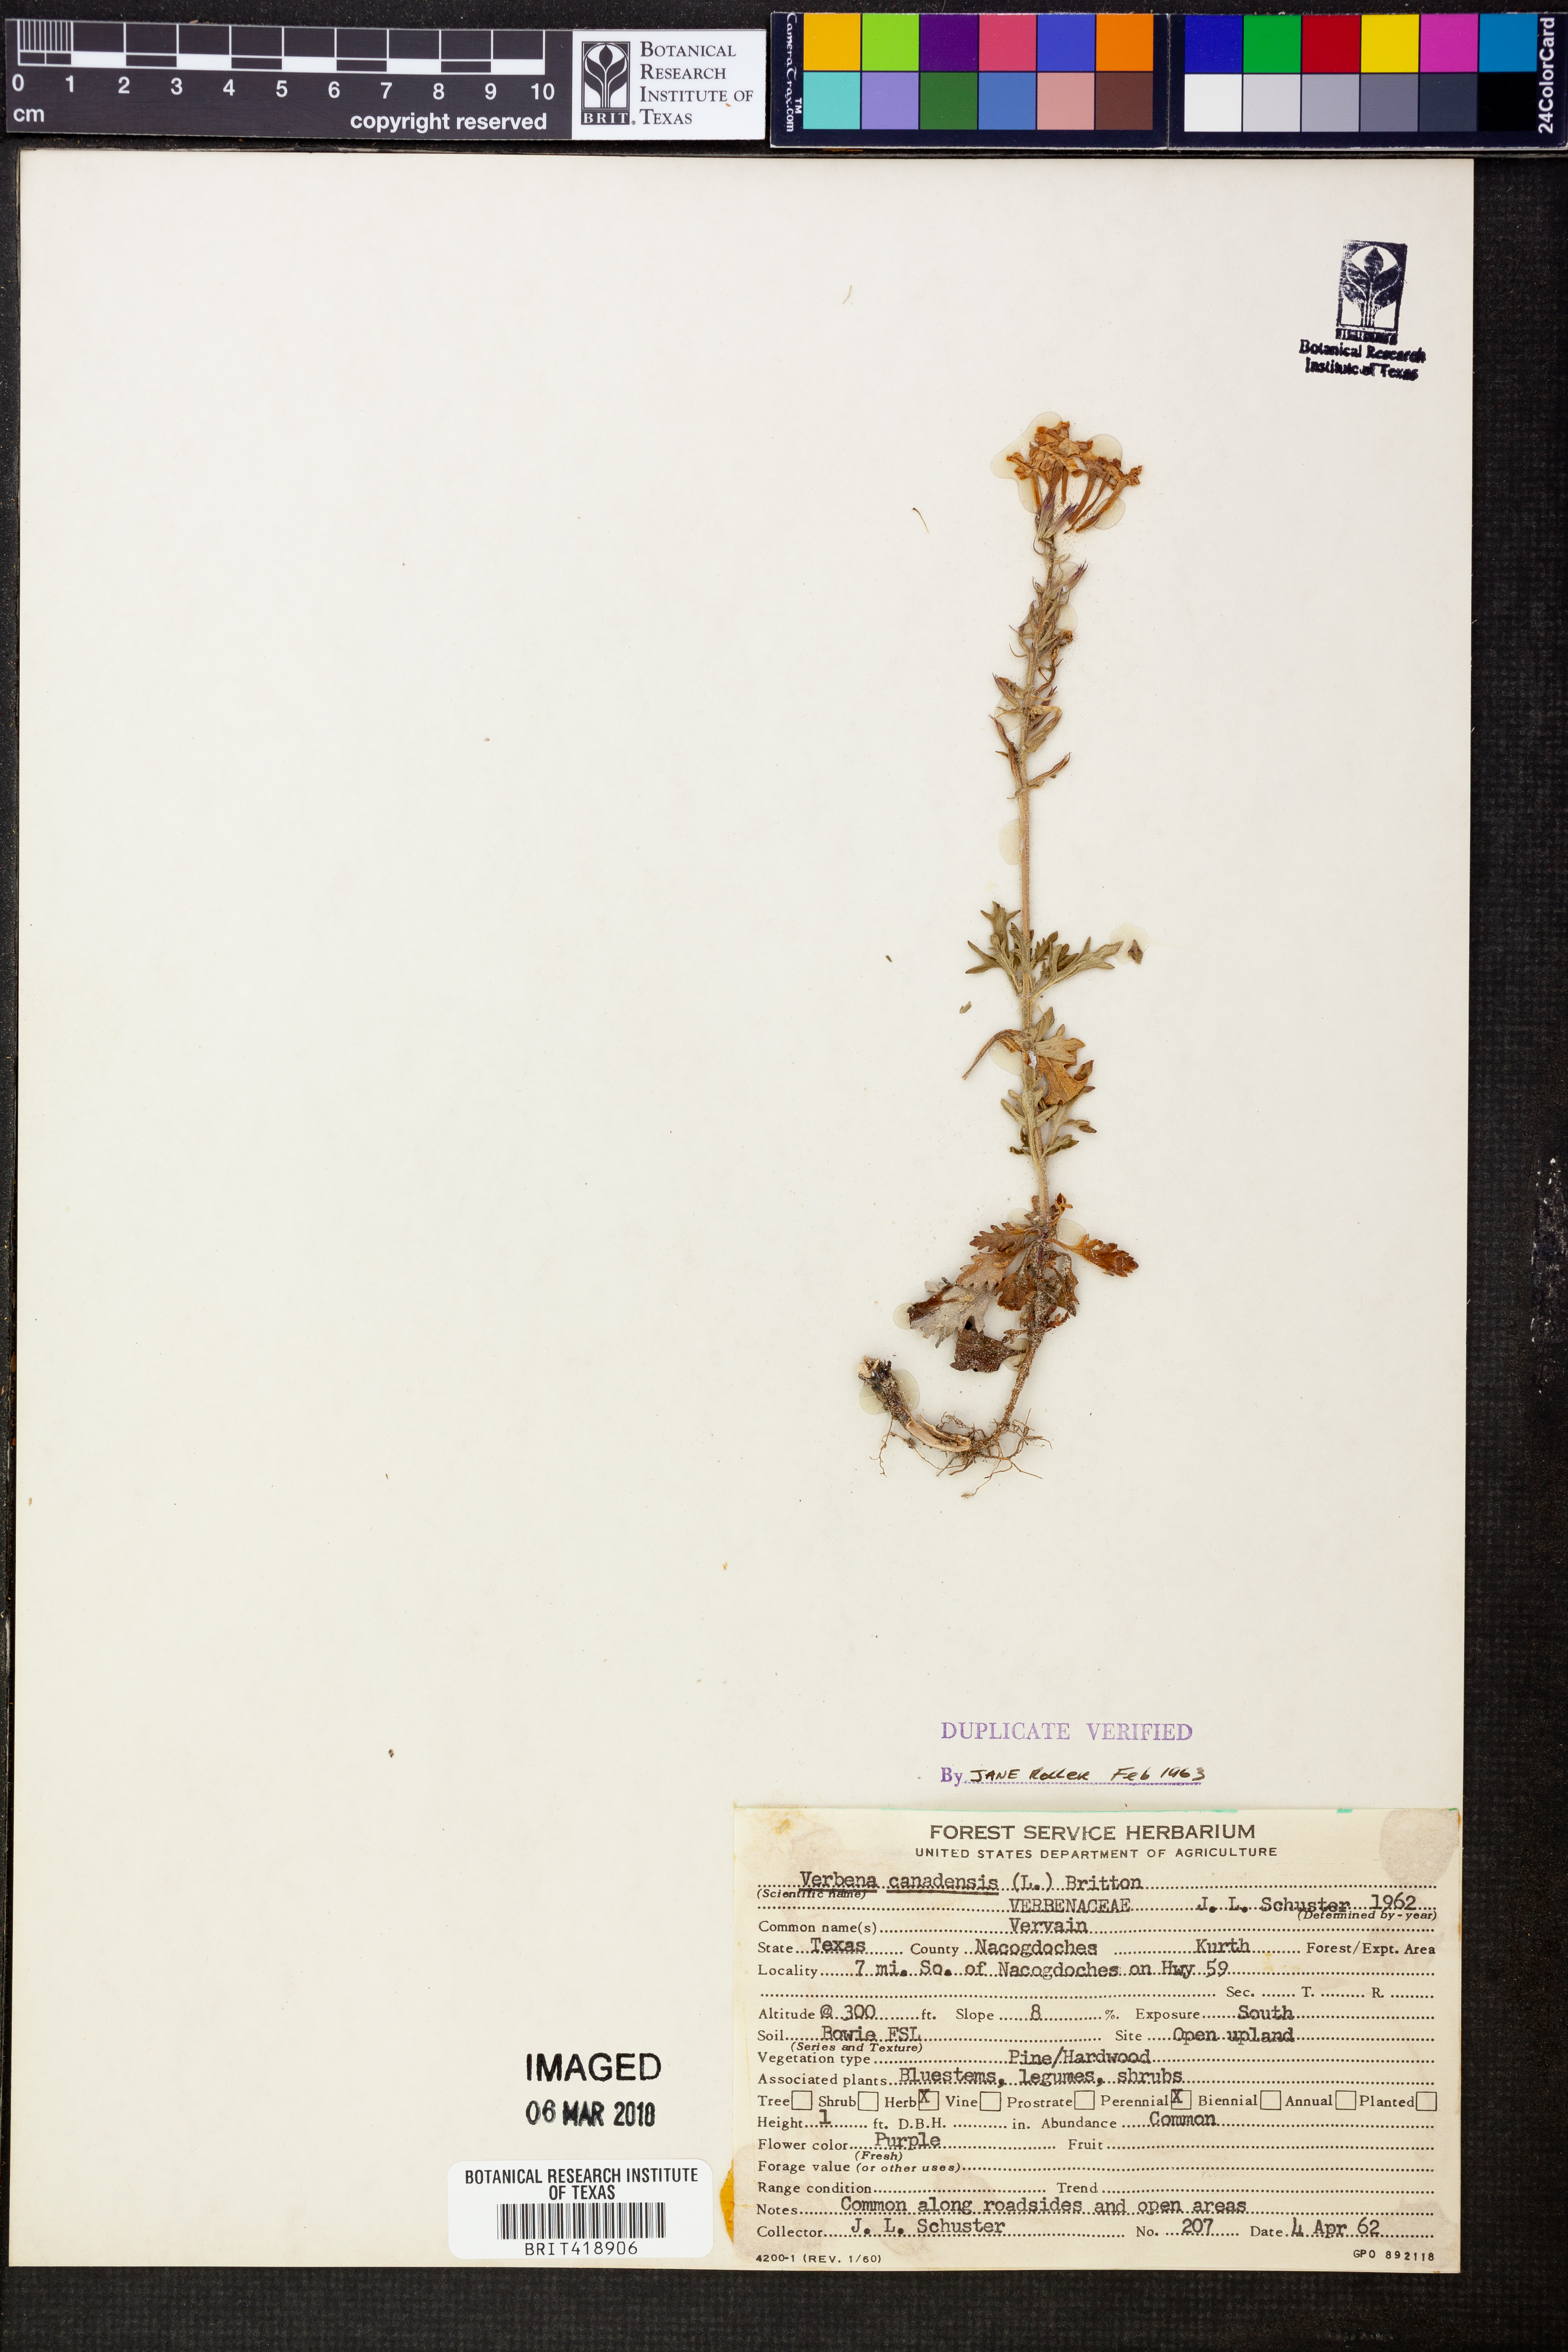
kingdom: Plantae
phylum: Tracheophyta
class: Magnoliopsida
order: Lamiales
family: Verbenaceae
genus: Verbena
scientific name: Verbena canadensis
